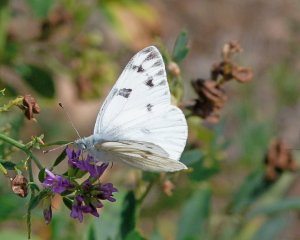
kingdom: Animalia
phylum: Arthropoda
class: Insecta
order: Lepidoptera
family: Pieridae
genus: Pontia
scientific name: Pontia occidentalis
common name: Western White
